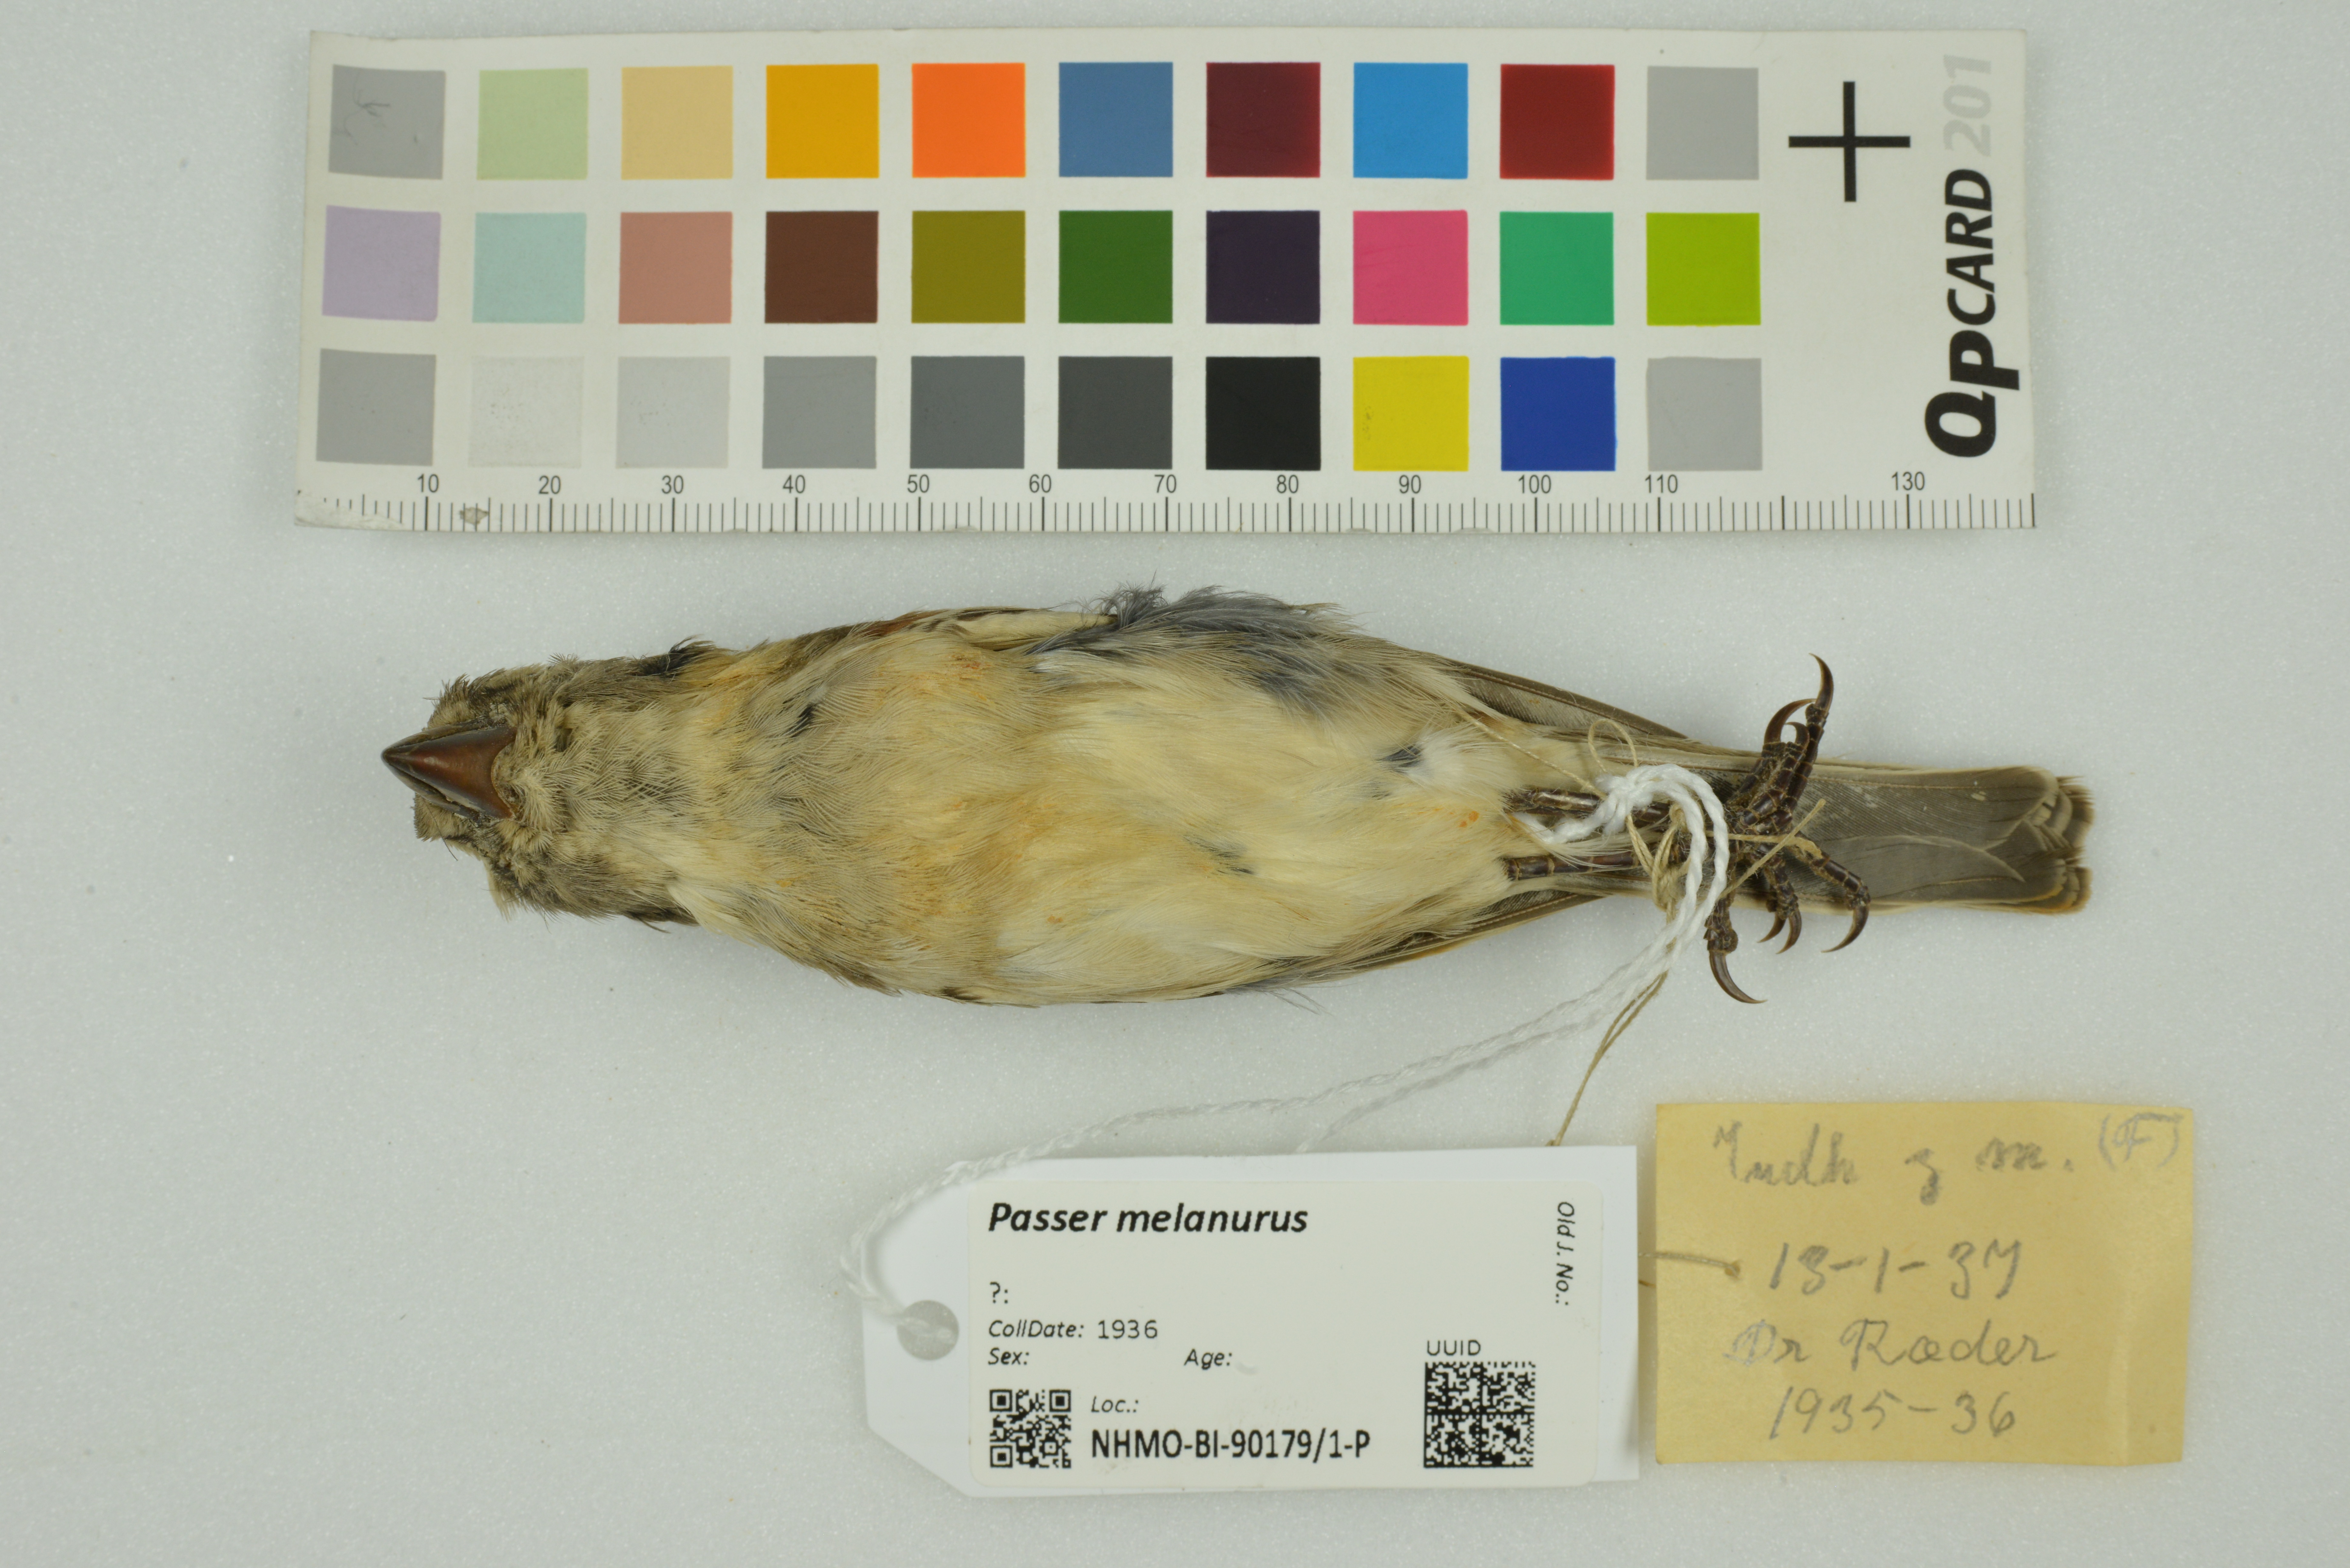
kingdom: Animalia
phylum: Chordata
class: Aves
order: Passeriformes
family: Passeridae
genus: Passer
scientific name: Passer melanurus
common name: Cape sparrow
